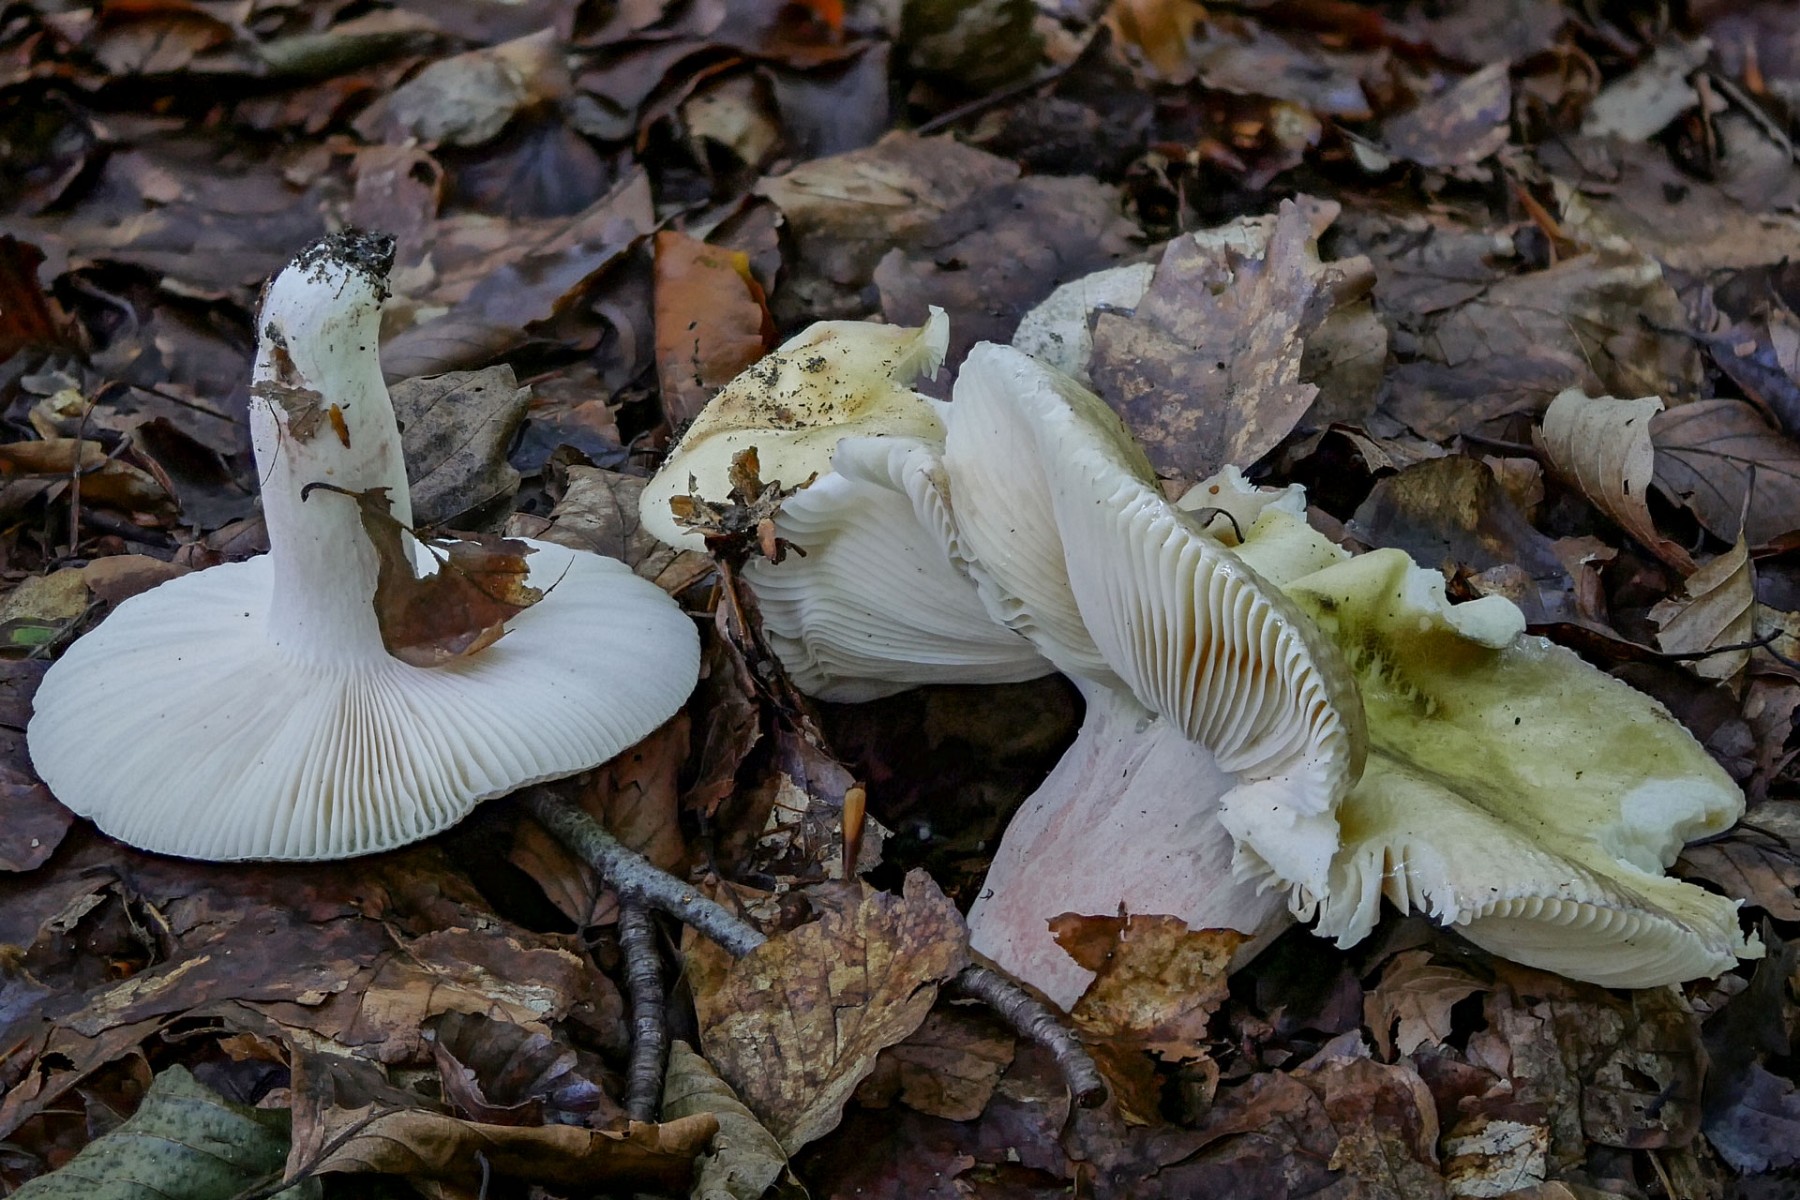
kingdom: Fungi
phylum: Basidiomycota
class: Agaricomycetes
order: Russulales
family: Russulaceae
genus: Russula
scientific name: Russula violeipes
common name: ferskengul skørhat
